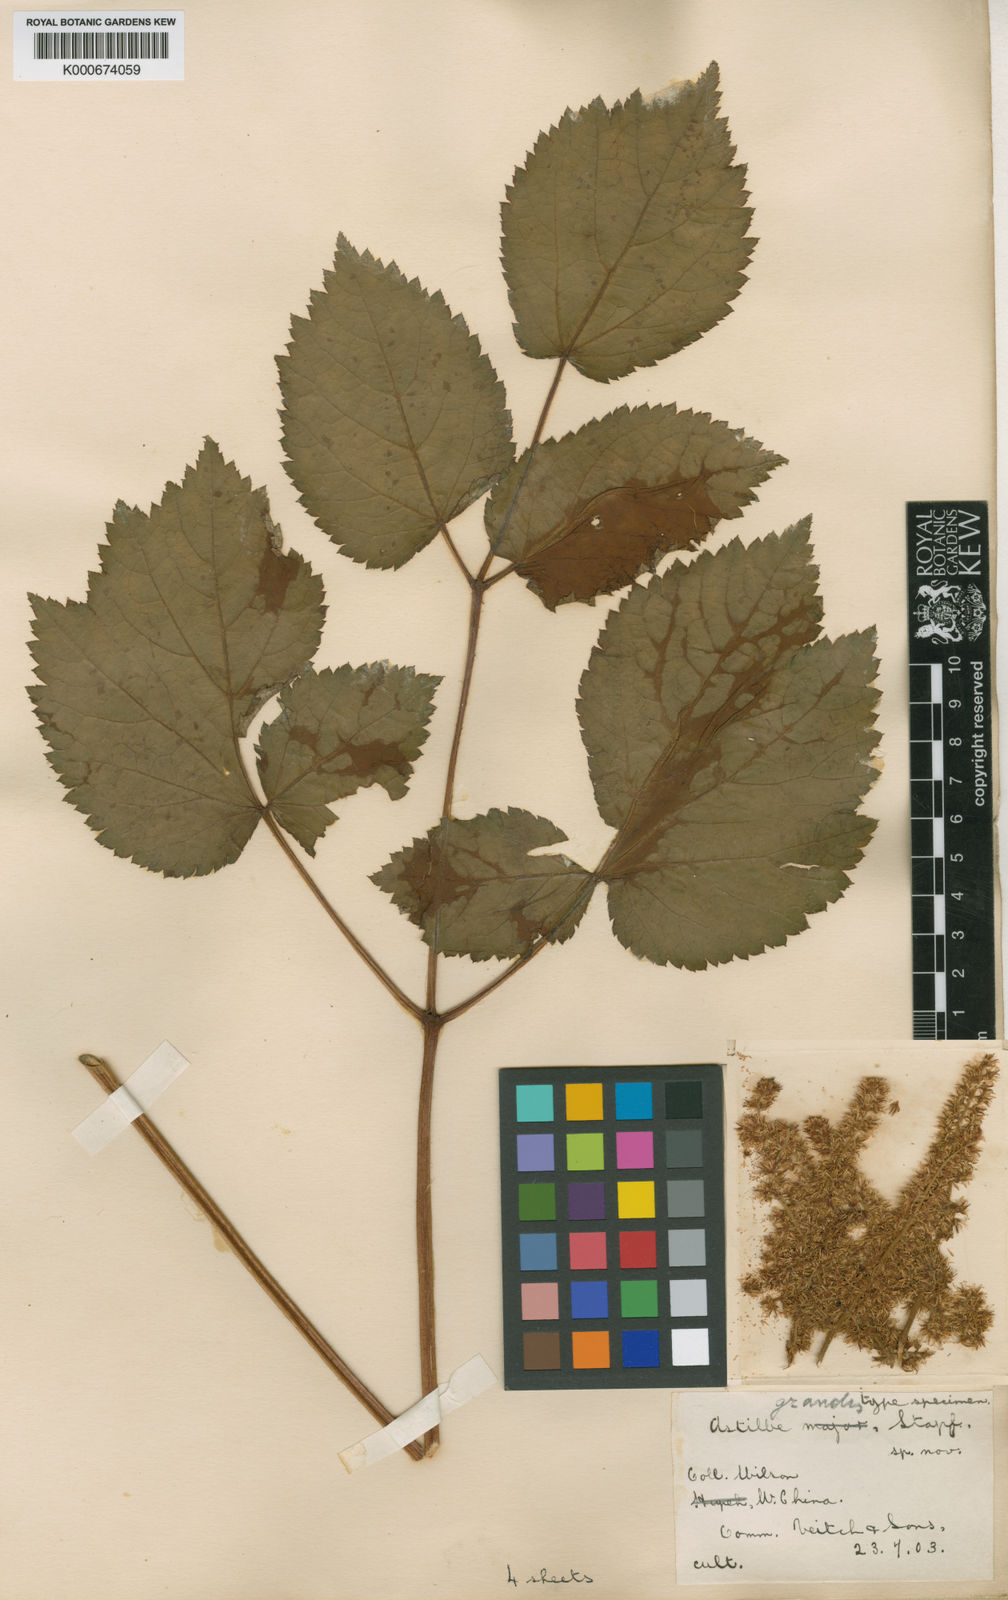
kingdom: Plantae
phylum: Tracheophyta
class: Magnoliopsida
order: Saxifragales
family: Saxifragaceae
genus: Astilbe
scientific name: Astilbe grandis
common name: Korean astilbe
